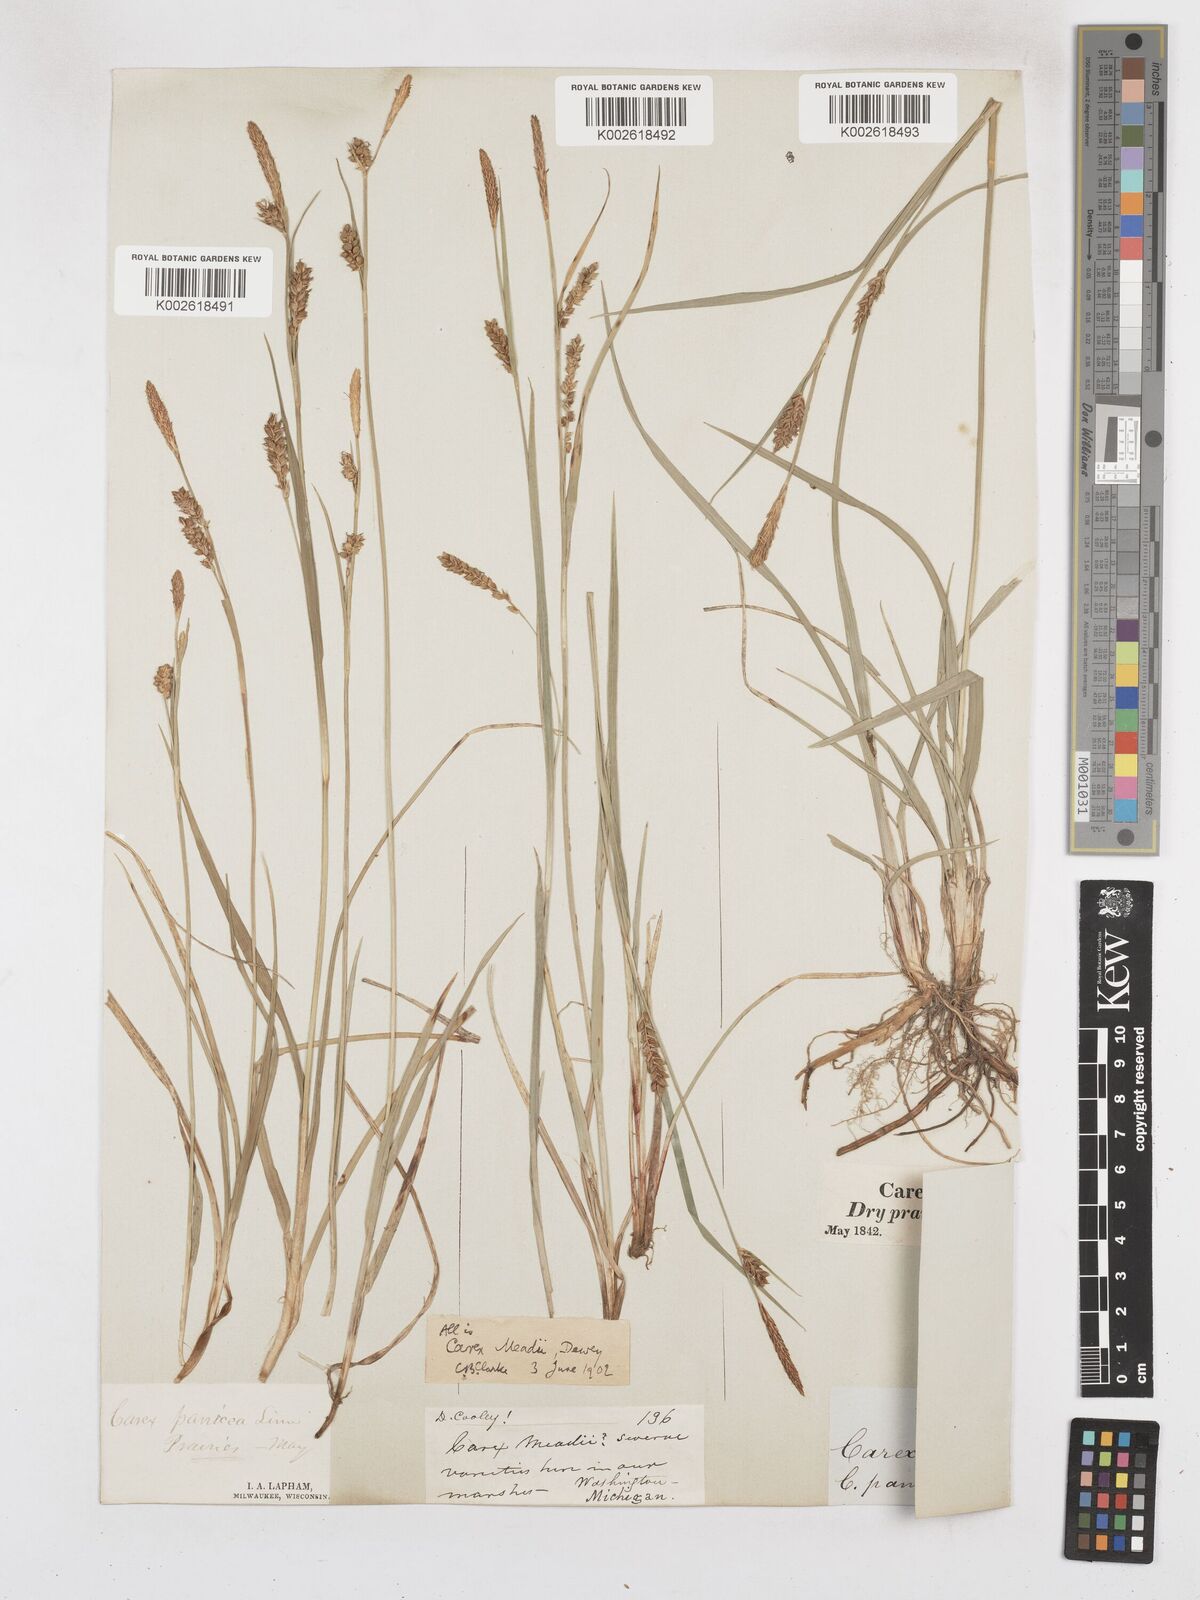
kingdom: Plantae
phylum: Tracheophyta
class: Liliopsida
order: Poales
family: Cyperaceae
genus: Carex
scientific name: Carex meadii
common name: Mead's sedge
